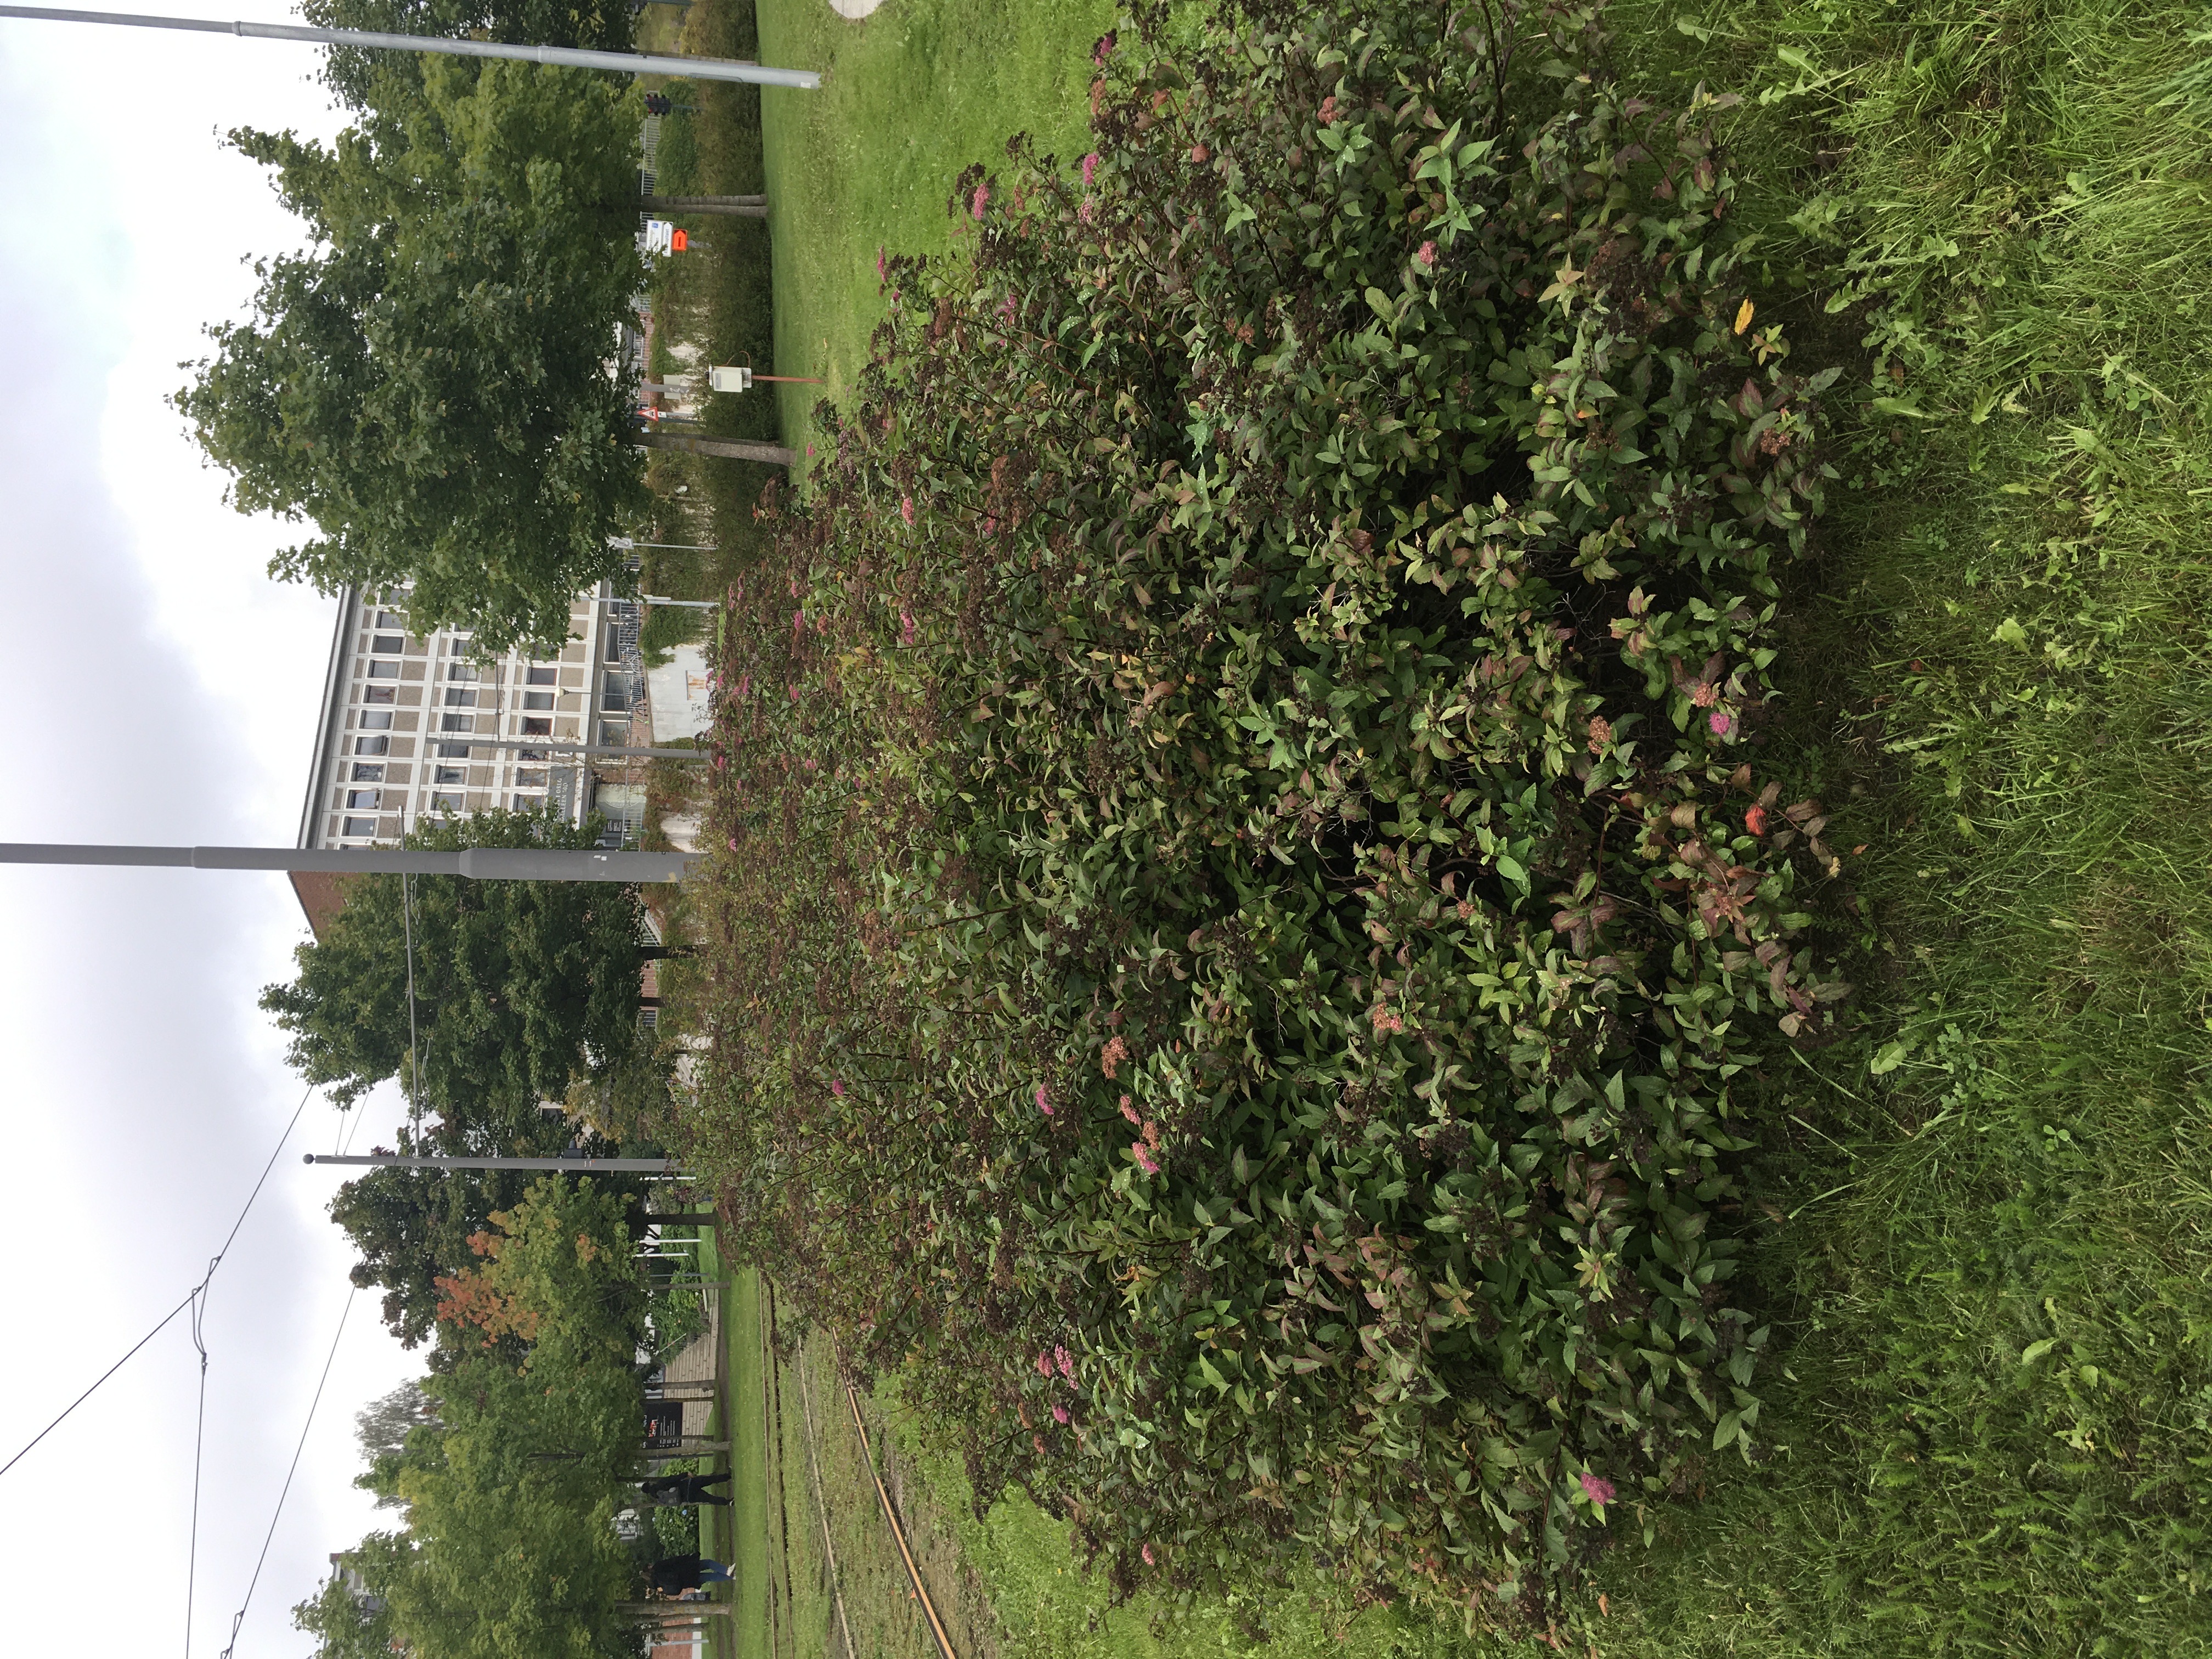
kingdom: Plantae
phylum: Tracheophyta
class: Magnoliopsida
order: Rosales
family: Rosaceae
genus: Spiraea
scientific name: Spiraea japonica
